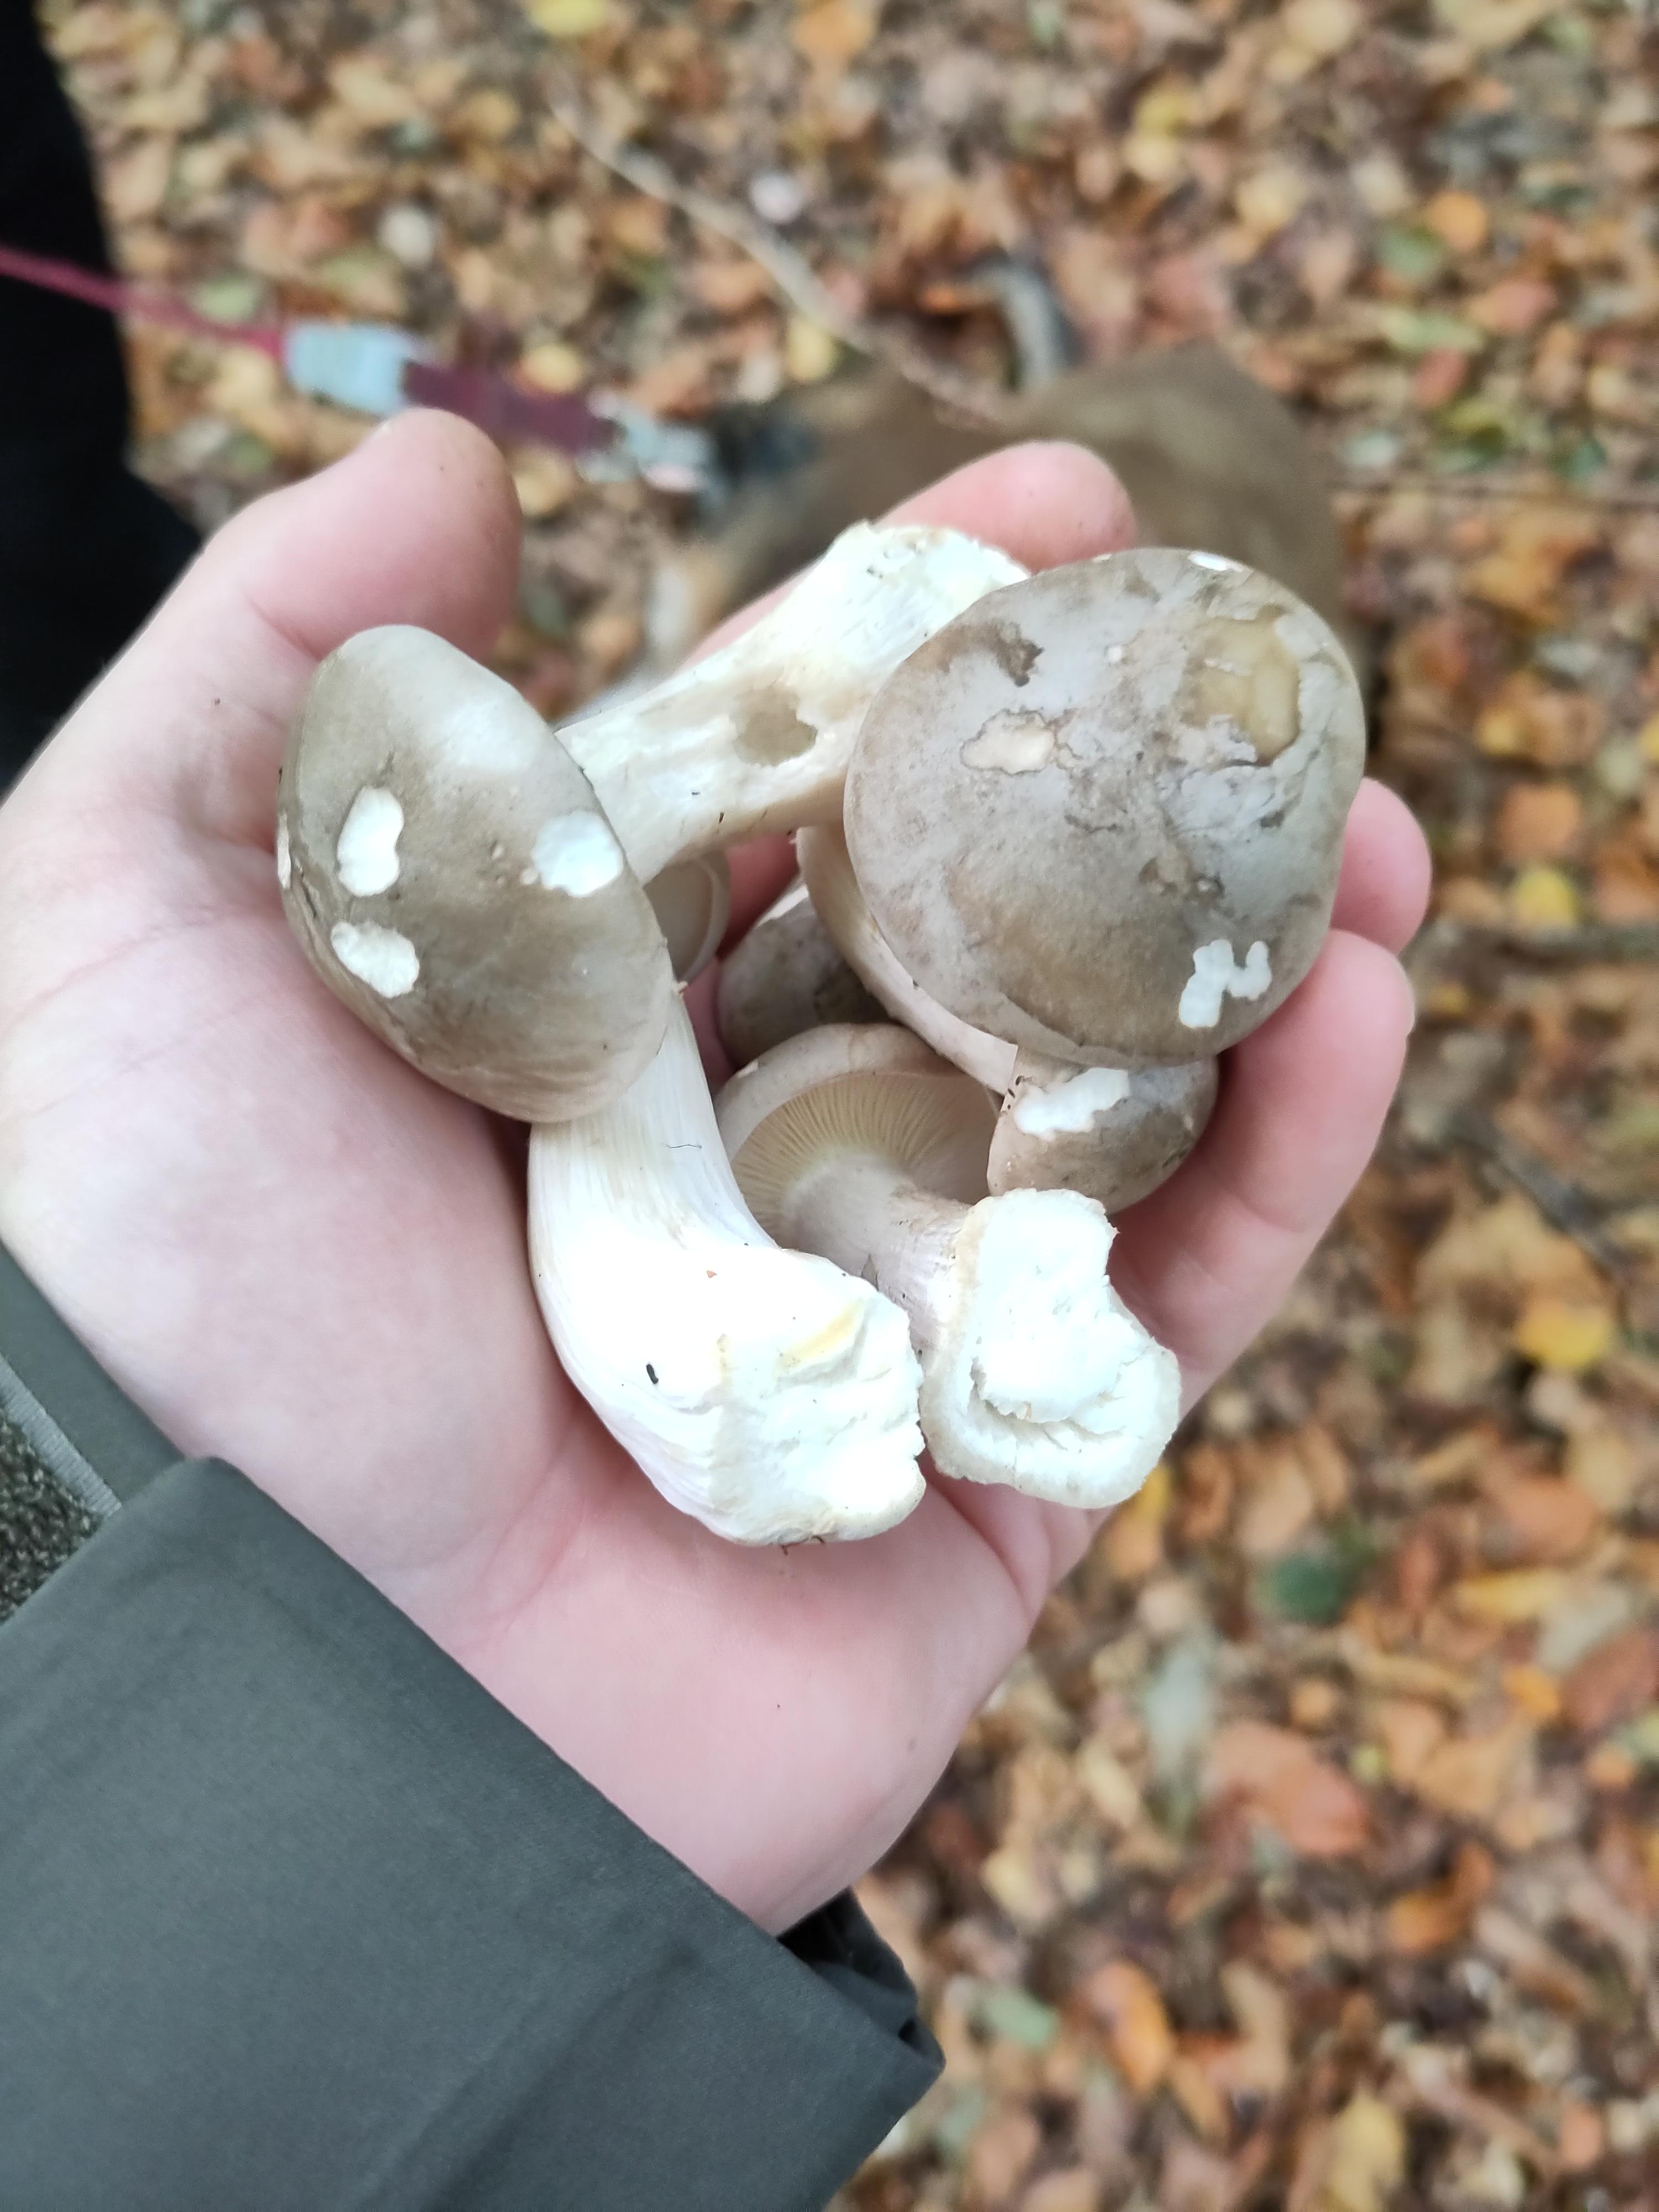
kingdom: Fungi
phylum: Basidiomycota
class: Agaricomycetes
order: Agaricales
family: Tricholomataceae
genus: Clitocybe
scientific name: Clitocybe nebularis
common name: tåge-tragthat
